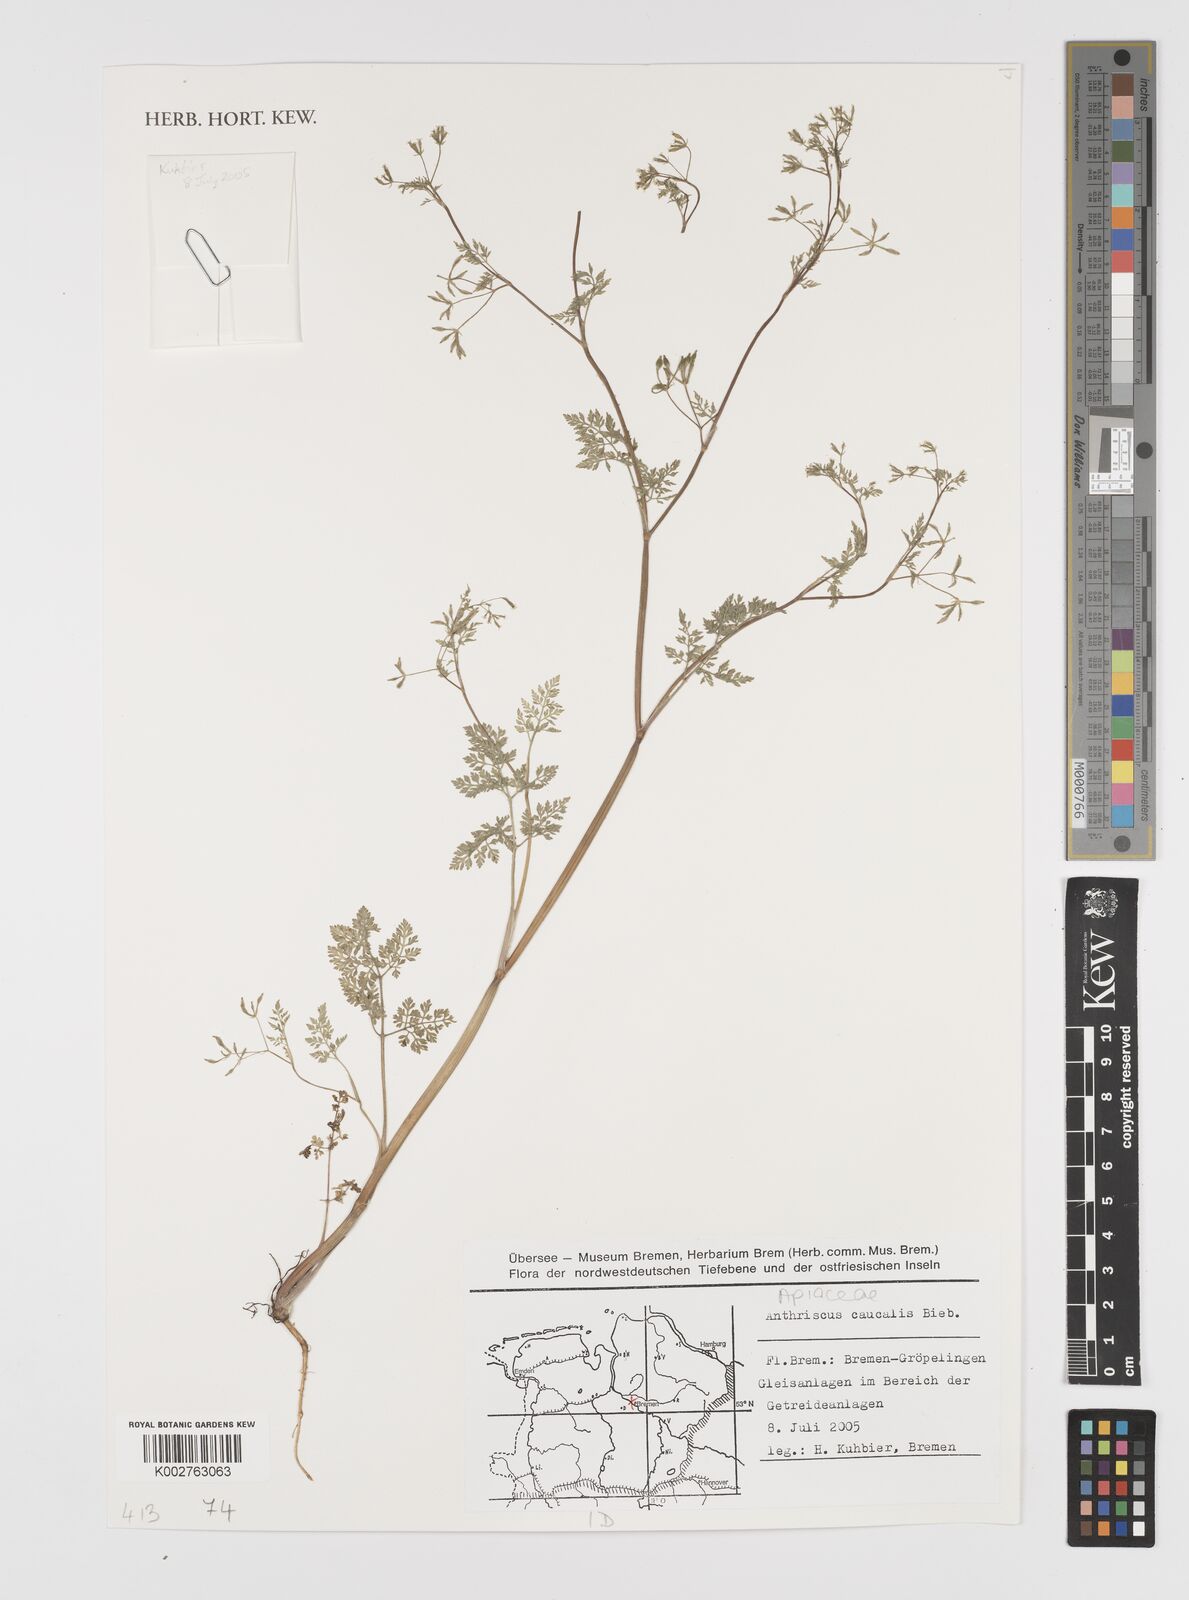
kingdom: Plantae
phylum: Tracheophyta
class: Magnoliopsida
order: Apiales
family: Apiaceae
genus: Anthriscus
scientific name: Anthriscus caucalis
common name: Bur chervil
